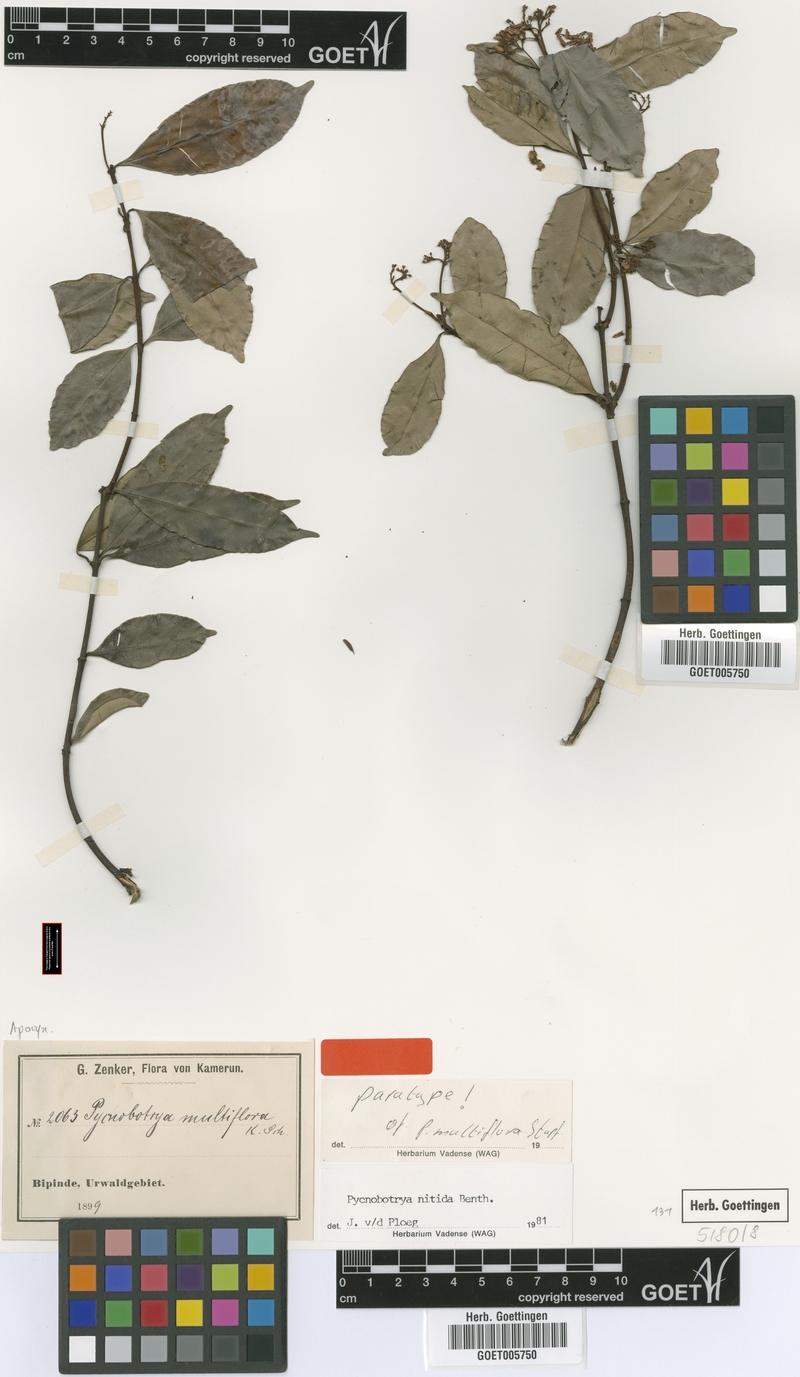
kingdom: Plantae
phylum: Tracheophyta
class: Magnoliopsida
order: Gentianales
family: Apocynaceae
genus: Pycnobotrya
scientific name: Pycnobotrya nitida
